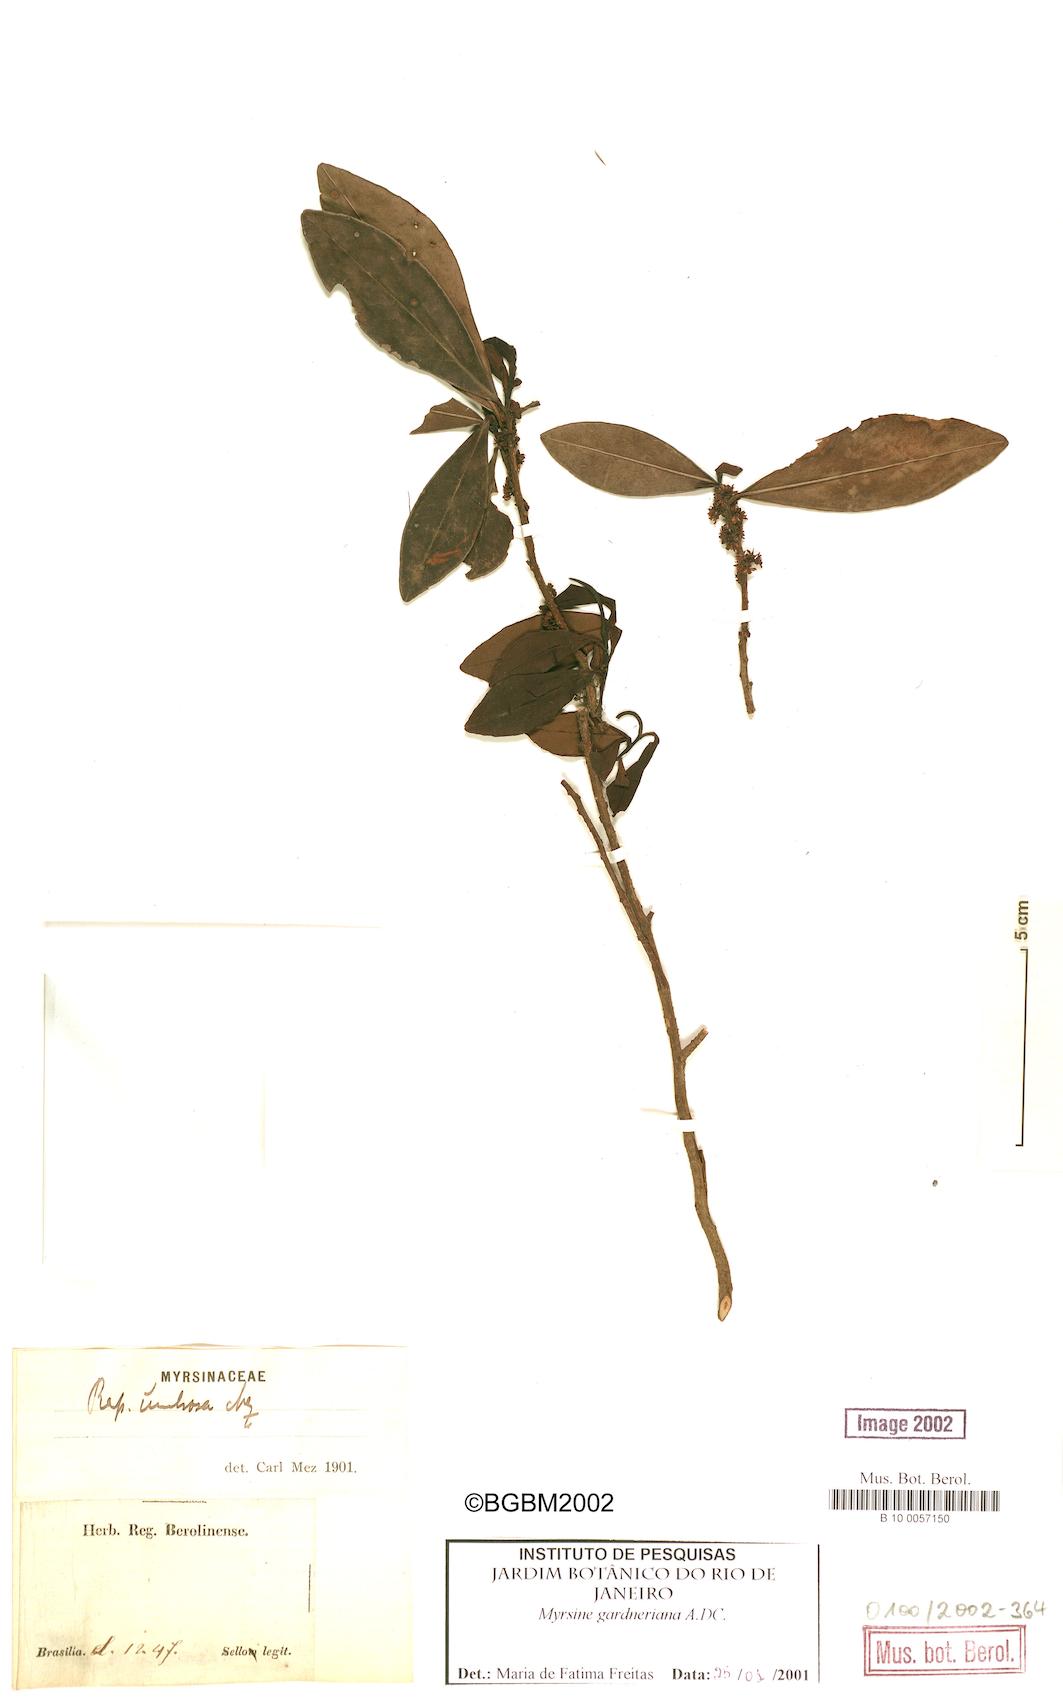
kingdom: Plantae
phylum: Tracheophyta
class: Magnoliopsida
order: Ericales
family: Primulaceae
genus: Myrsine
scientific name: Myrsine gardneriana
